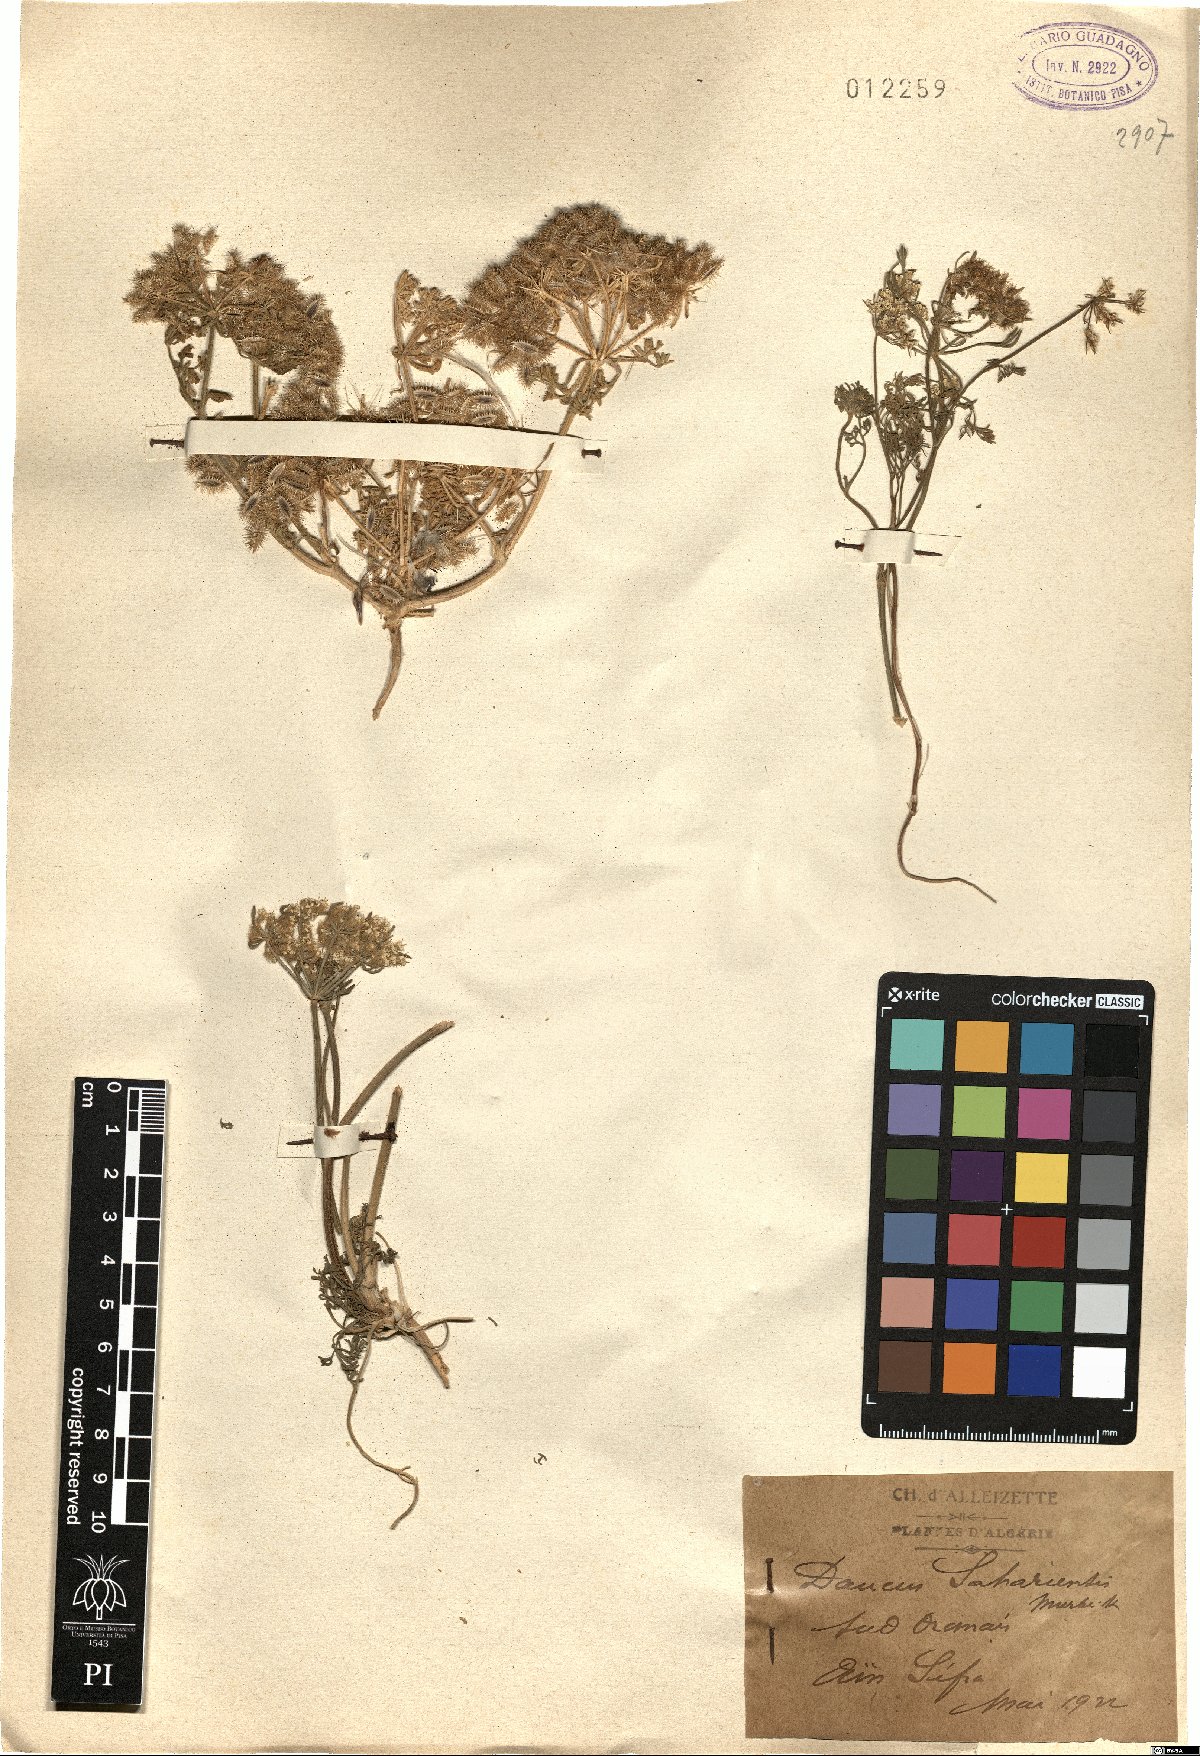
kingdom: Plantae
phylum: Tracheophyta
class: Magnoliopsida
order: Apiales
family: Apiaceae
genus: Daucus
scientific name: Daucus sahariensis
